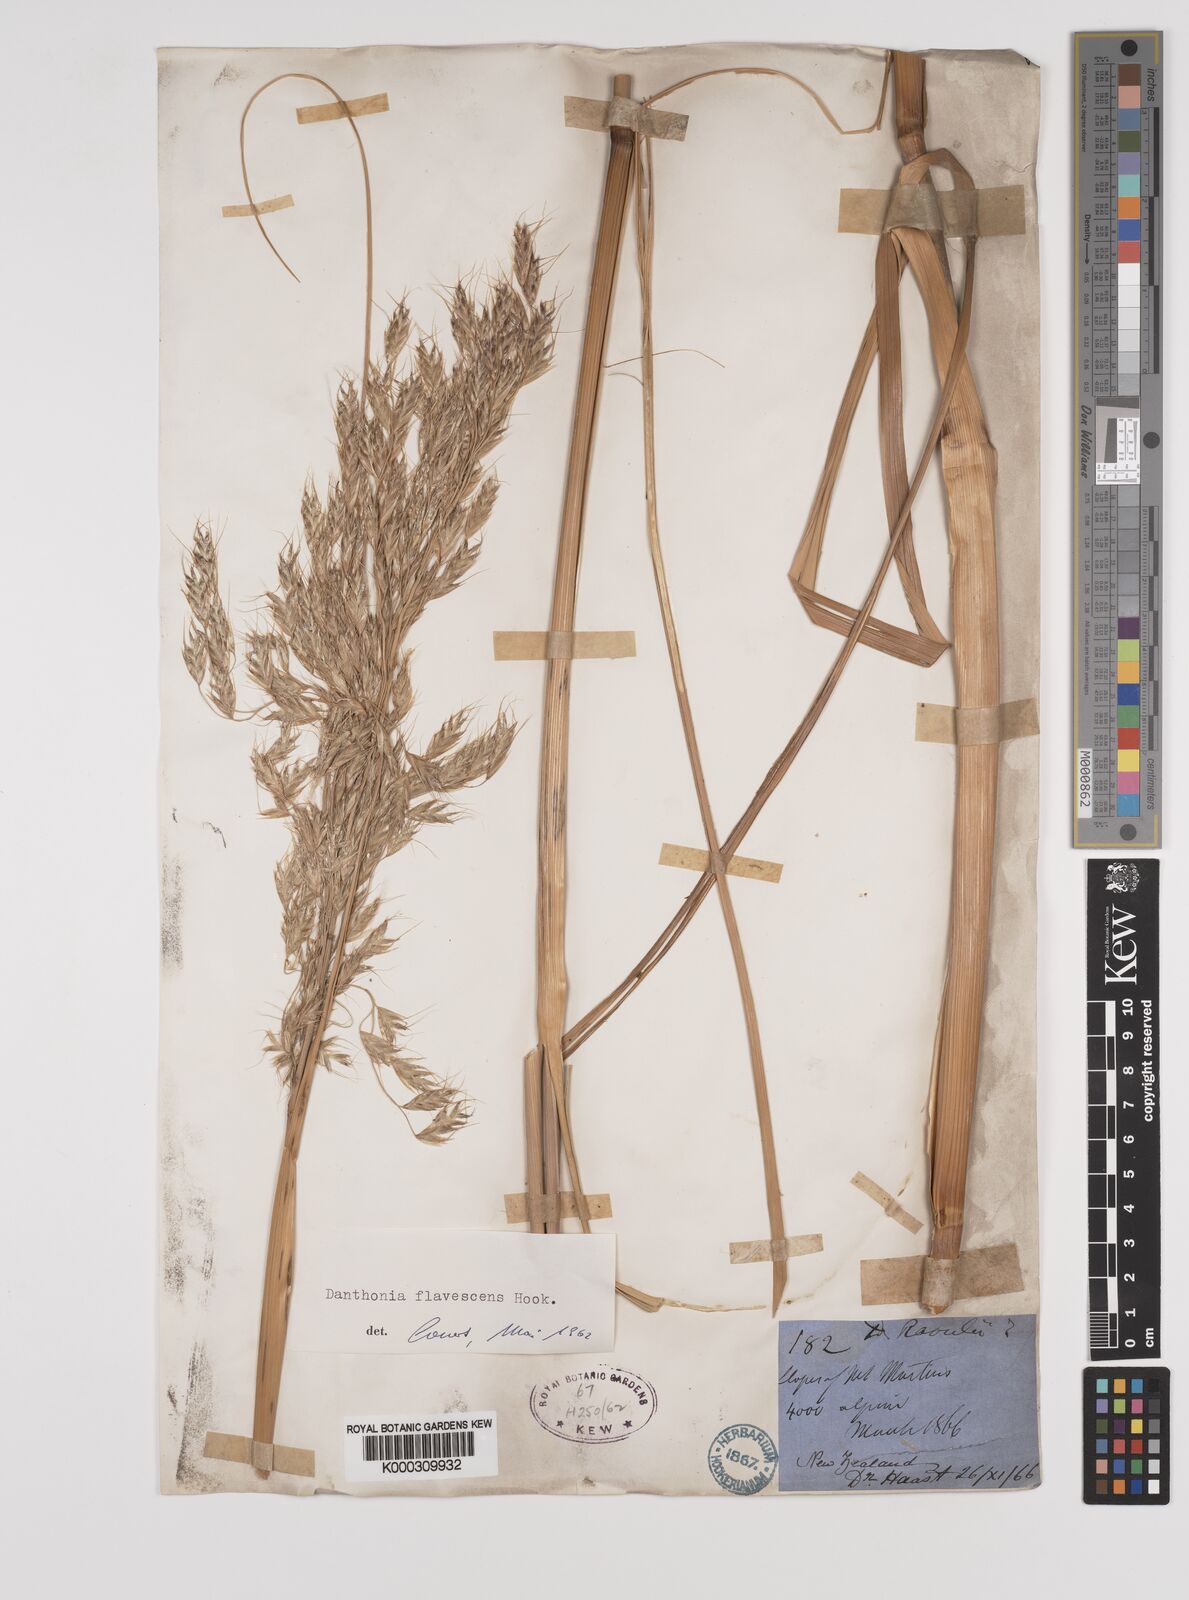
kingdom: Plantae
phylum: Tracheophyta
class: Liliopsida
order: Poales
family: Poaceae
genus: Chionochloa
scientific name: Chionochloa rigida
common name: Narrow leaved snow tussock
